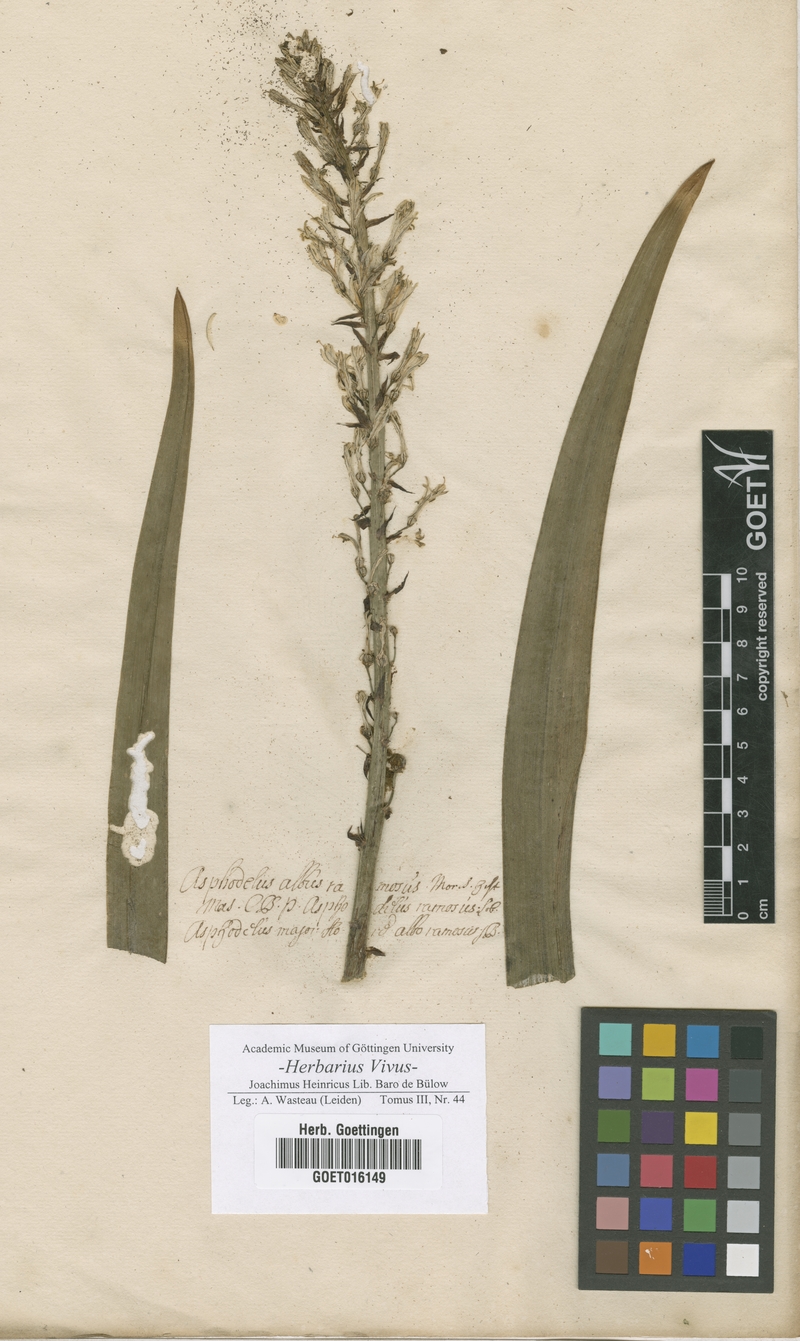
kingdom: Plantae
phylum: Tracheophyta
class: Liliopsida
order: Asparagales
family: Asphodelaceae
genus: Asphodelus
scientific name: Asphodelus ramosus
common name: Silverrod
